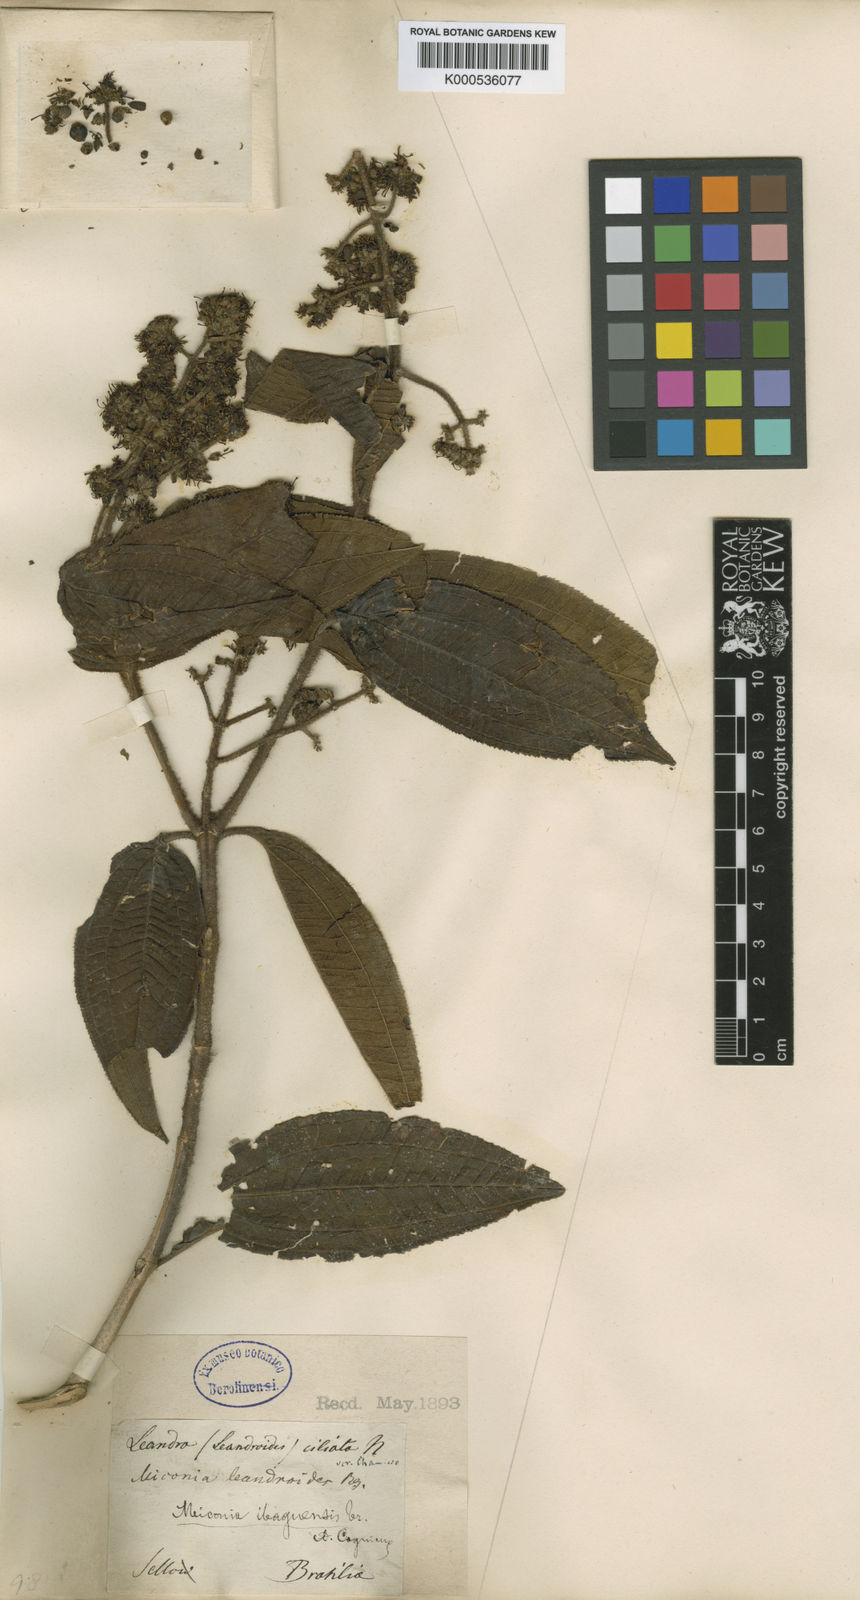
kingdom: Plantae
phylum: Tracheophyta
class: Magnoliopsida
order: Myrtales
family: Melastomataceae
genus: Miconia
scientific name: Miconia ibaguensis
